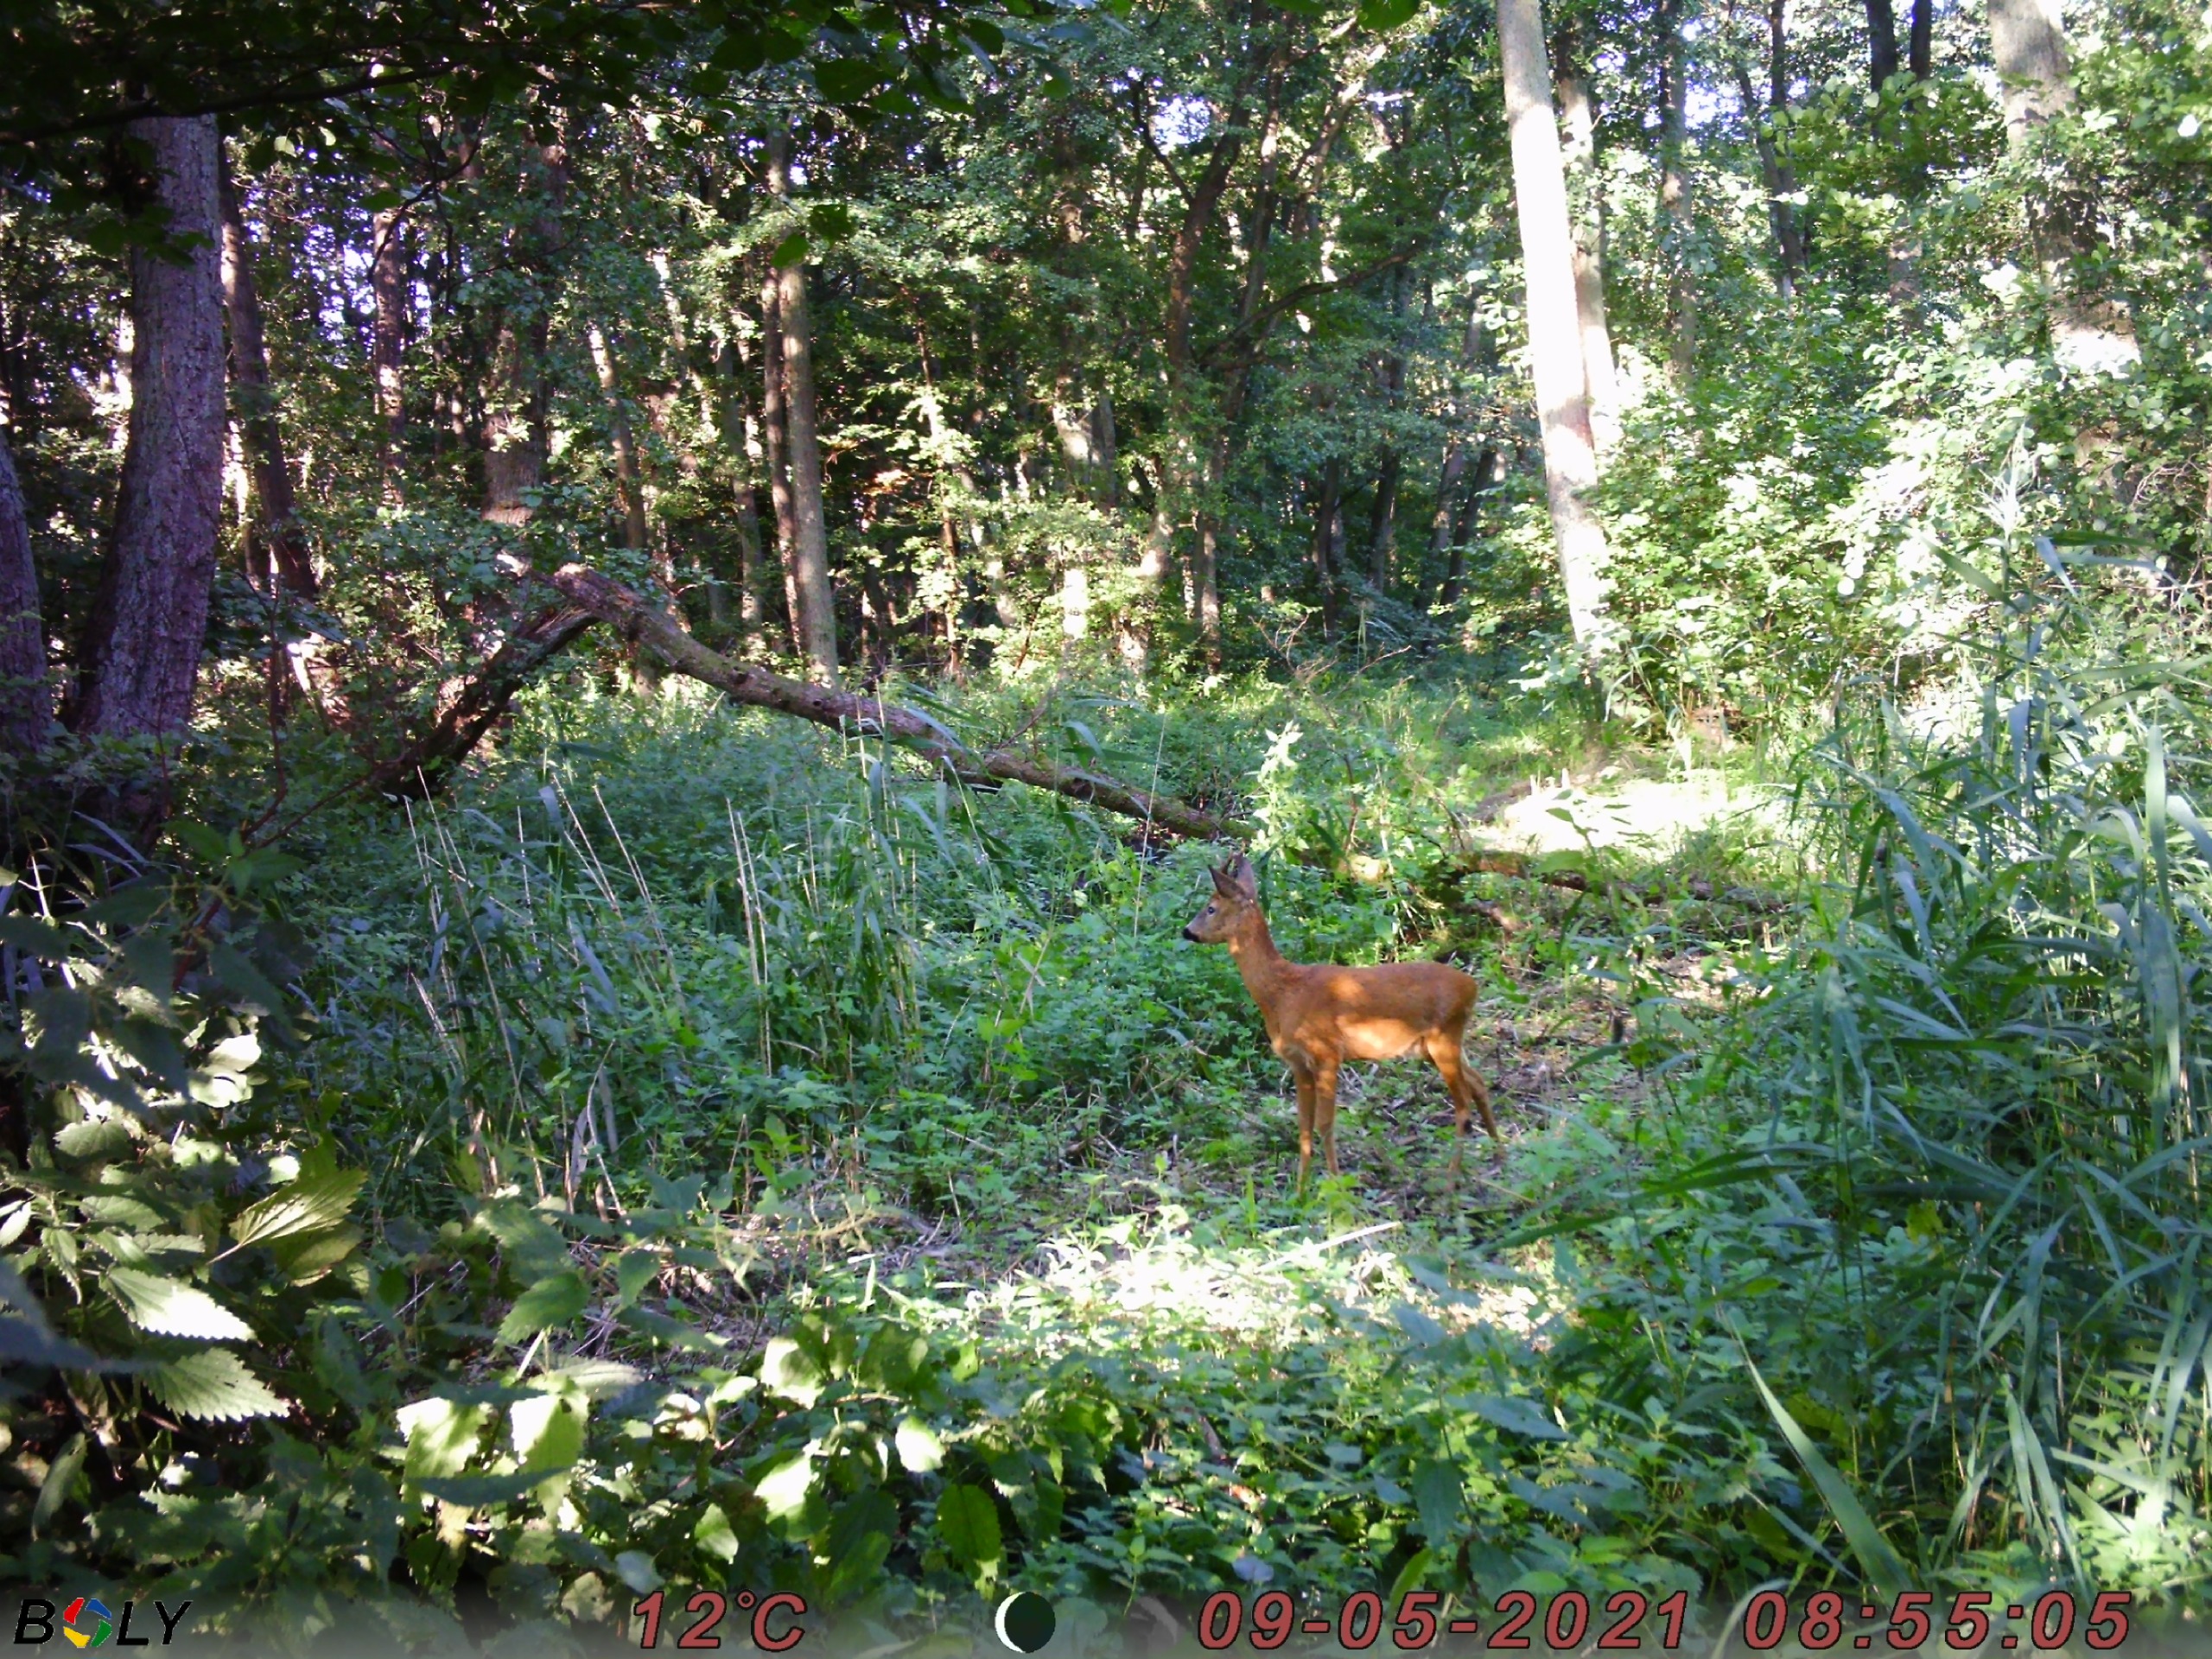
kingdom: Animalia
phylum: Chordata
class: Mammalia
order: Artiodactyla
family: Cervidae
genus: Capreolus
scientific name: Capreolus capreolus
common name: Rådyr
